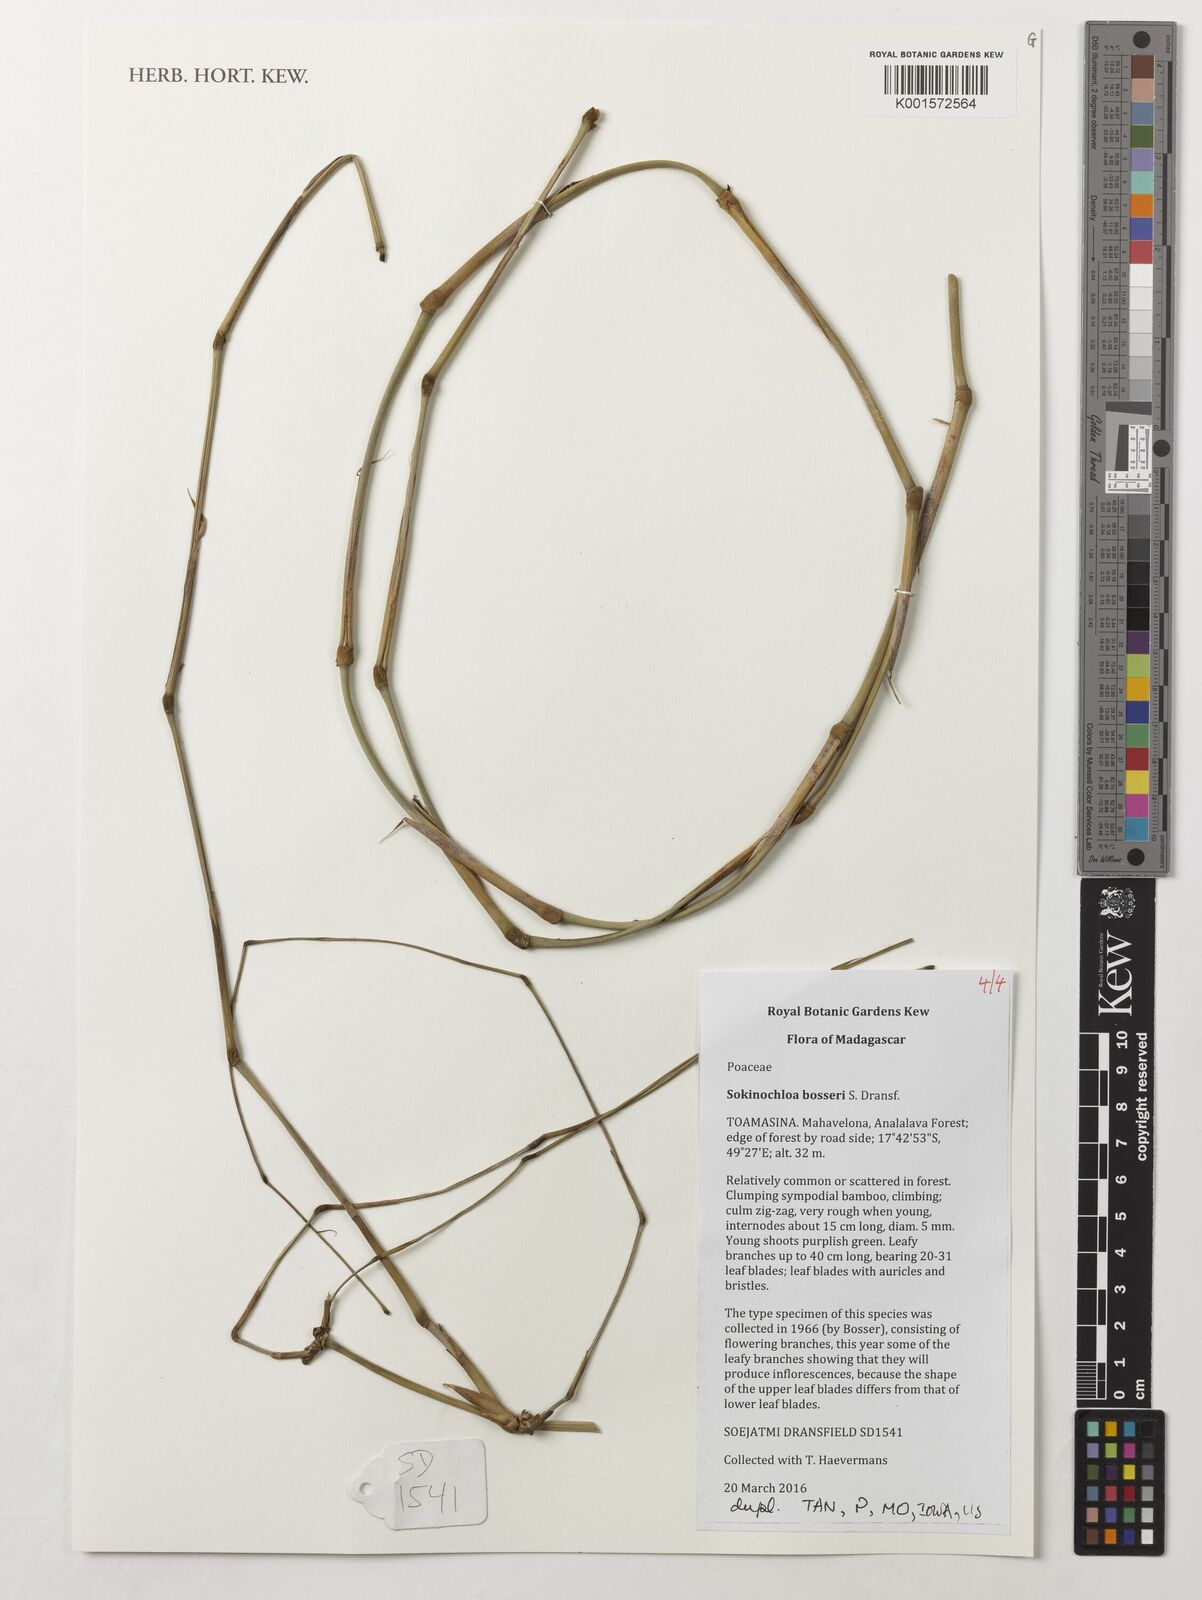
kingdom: Plantae
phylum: Tracheophyta
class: Liliopsida
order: Poales
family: Poaceae
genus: Sokinochloa
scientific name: Sokinochloa bosseri
